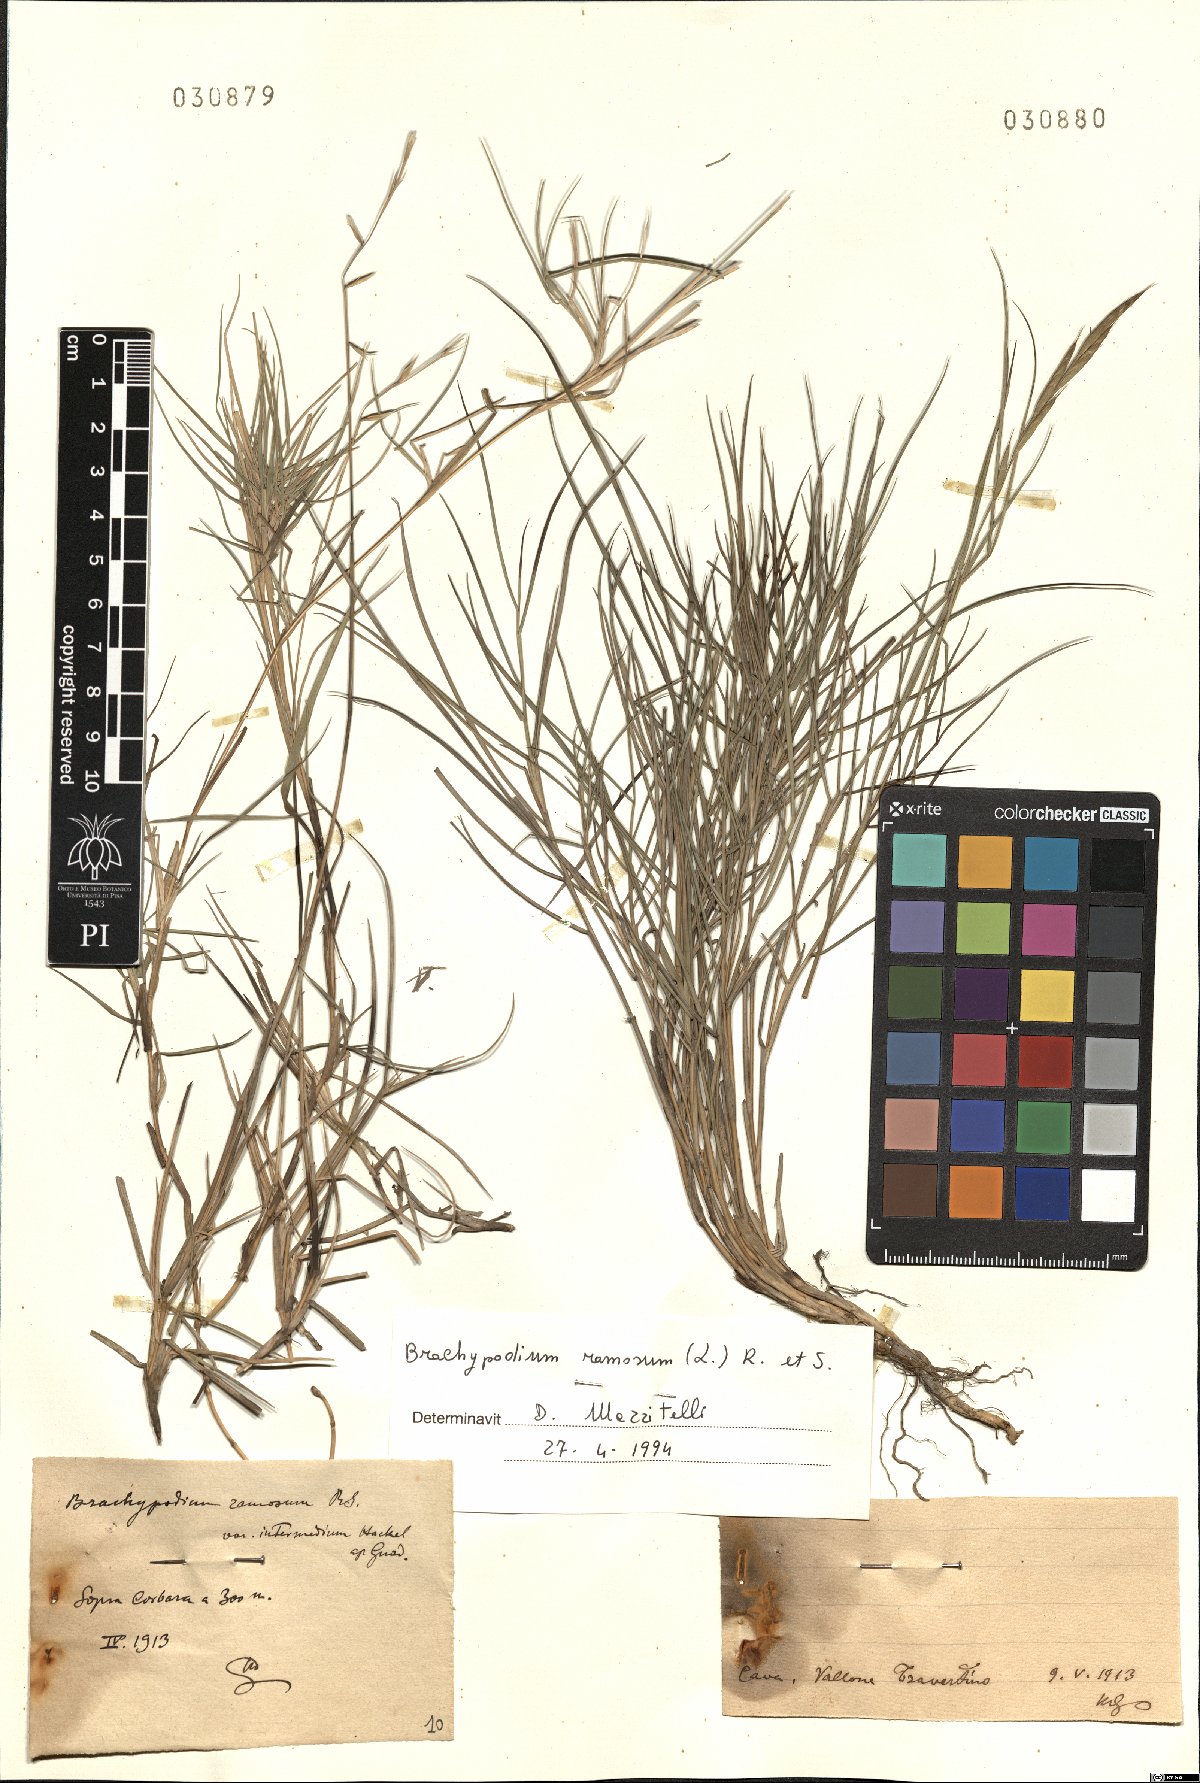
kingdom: Plantae
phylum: Tracheophyta
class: Liliopsida
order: Poales
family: Poaceae
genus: Brachypodium
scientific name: Brachypodium retusum
